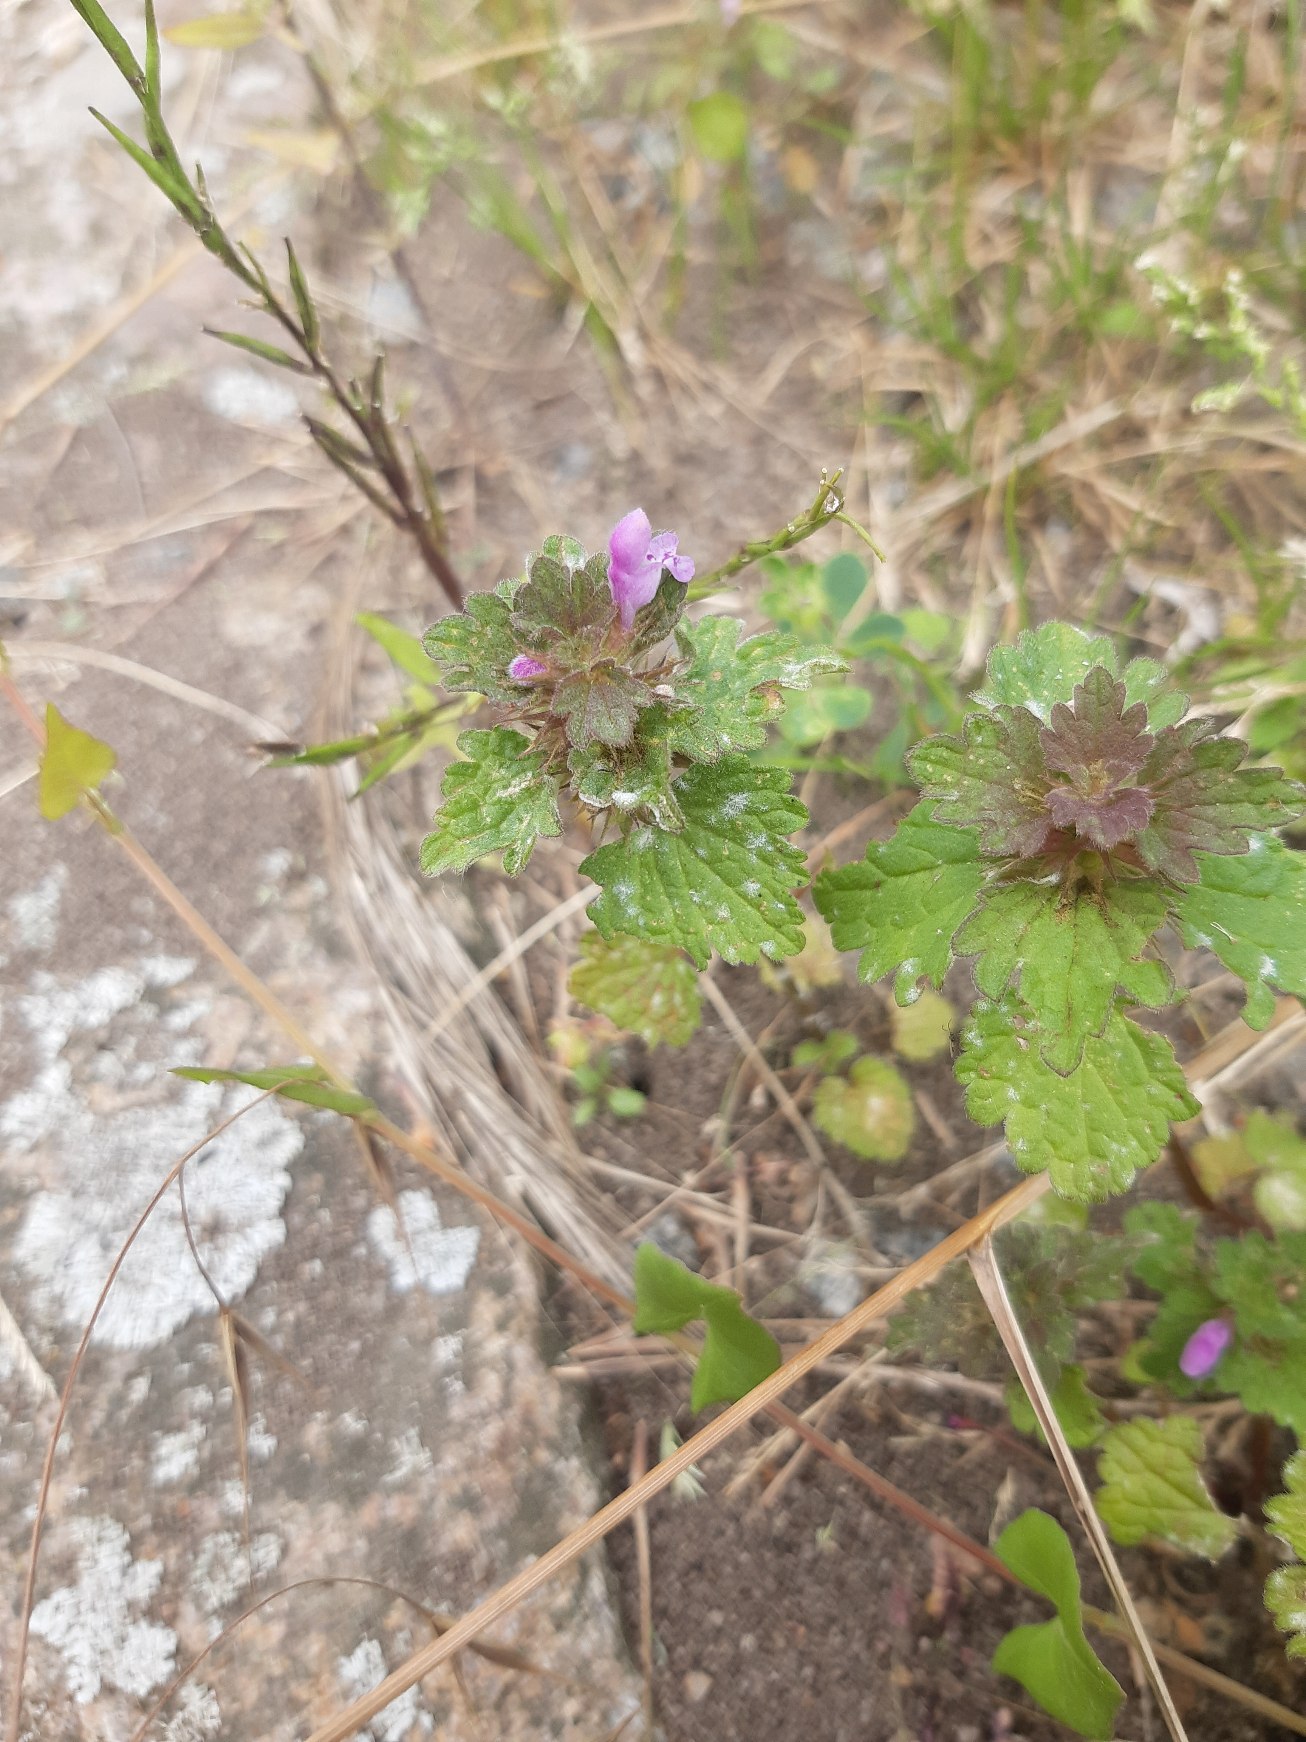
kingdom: Plantae
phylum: Tracheophyta
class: Magnoliopsida
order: Lamiales
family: Lamiaceae
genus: Lamium
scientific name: Lamium hybridum
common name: Fliget tvetand
